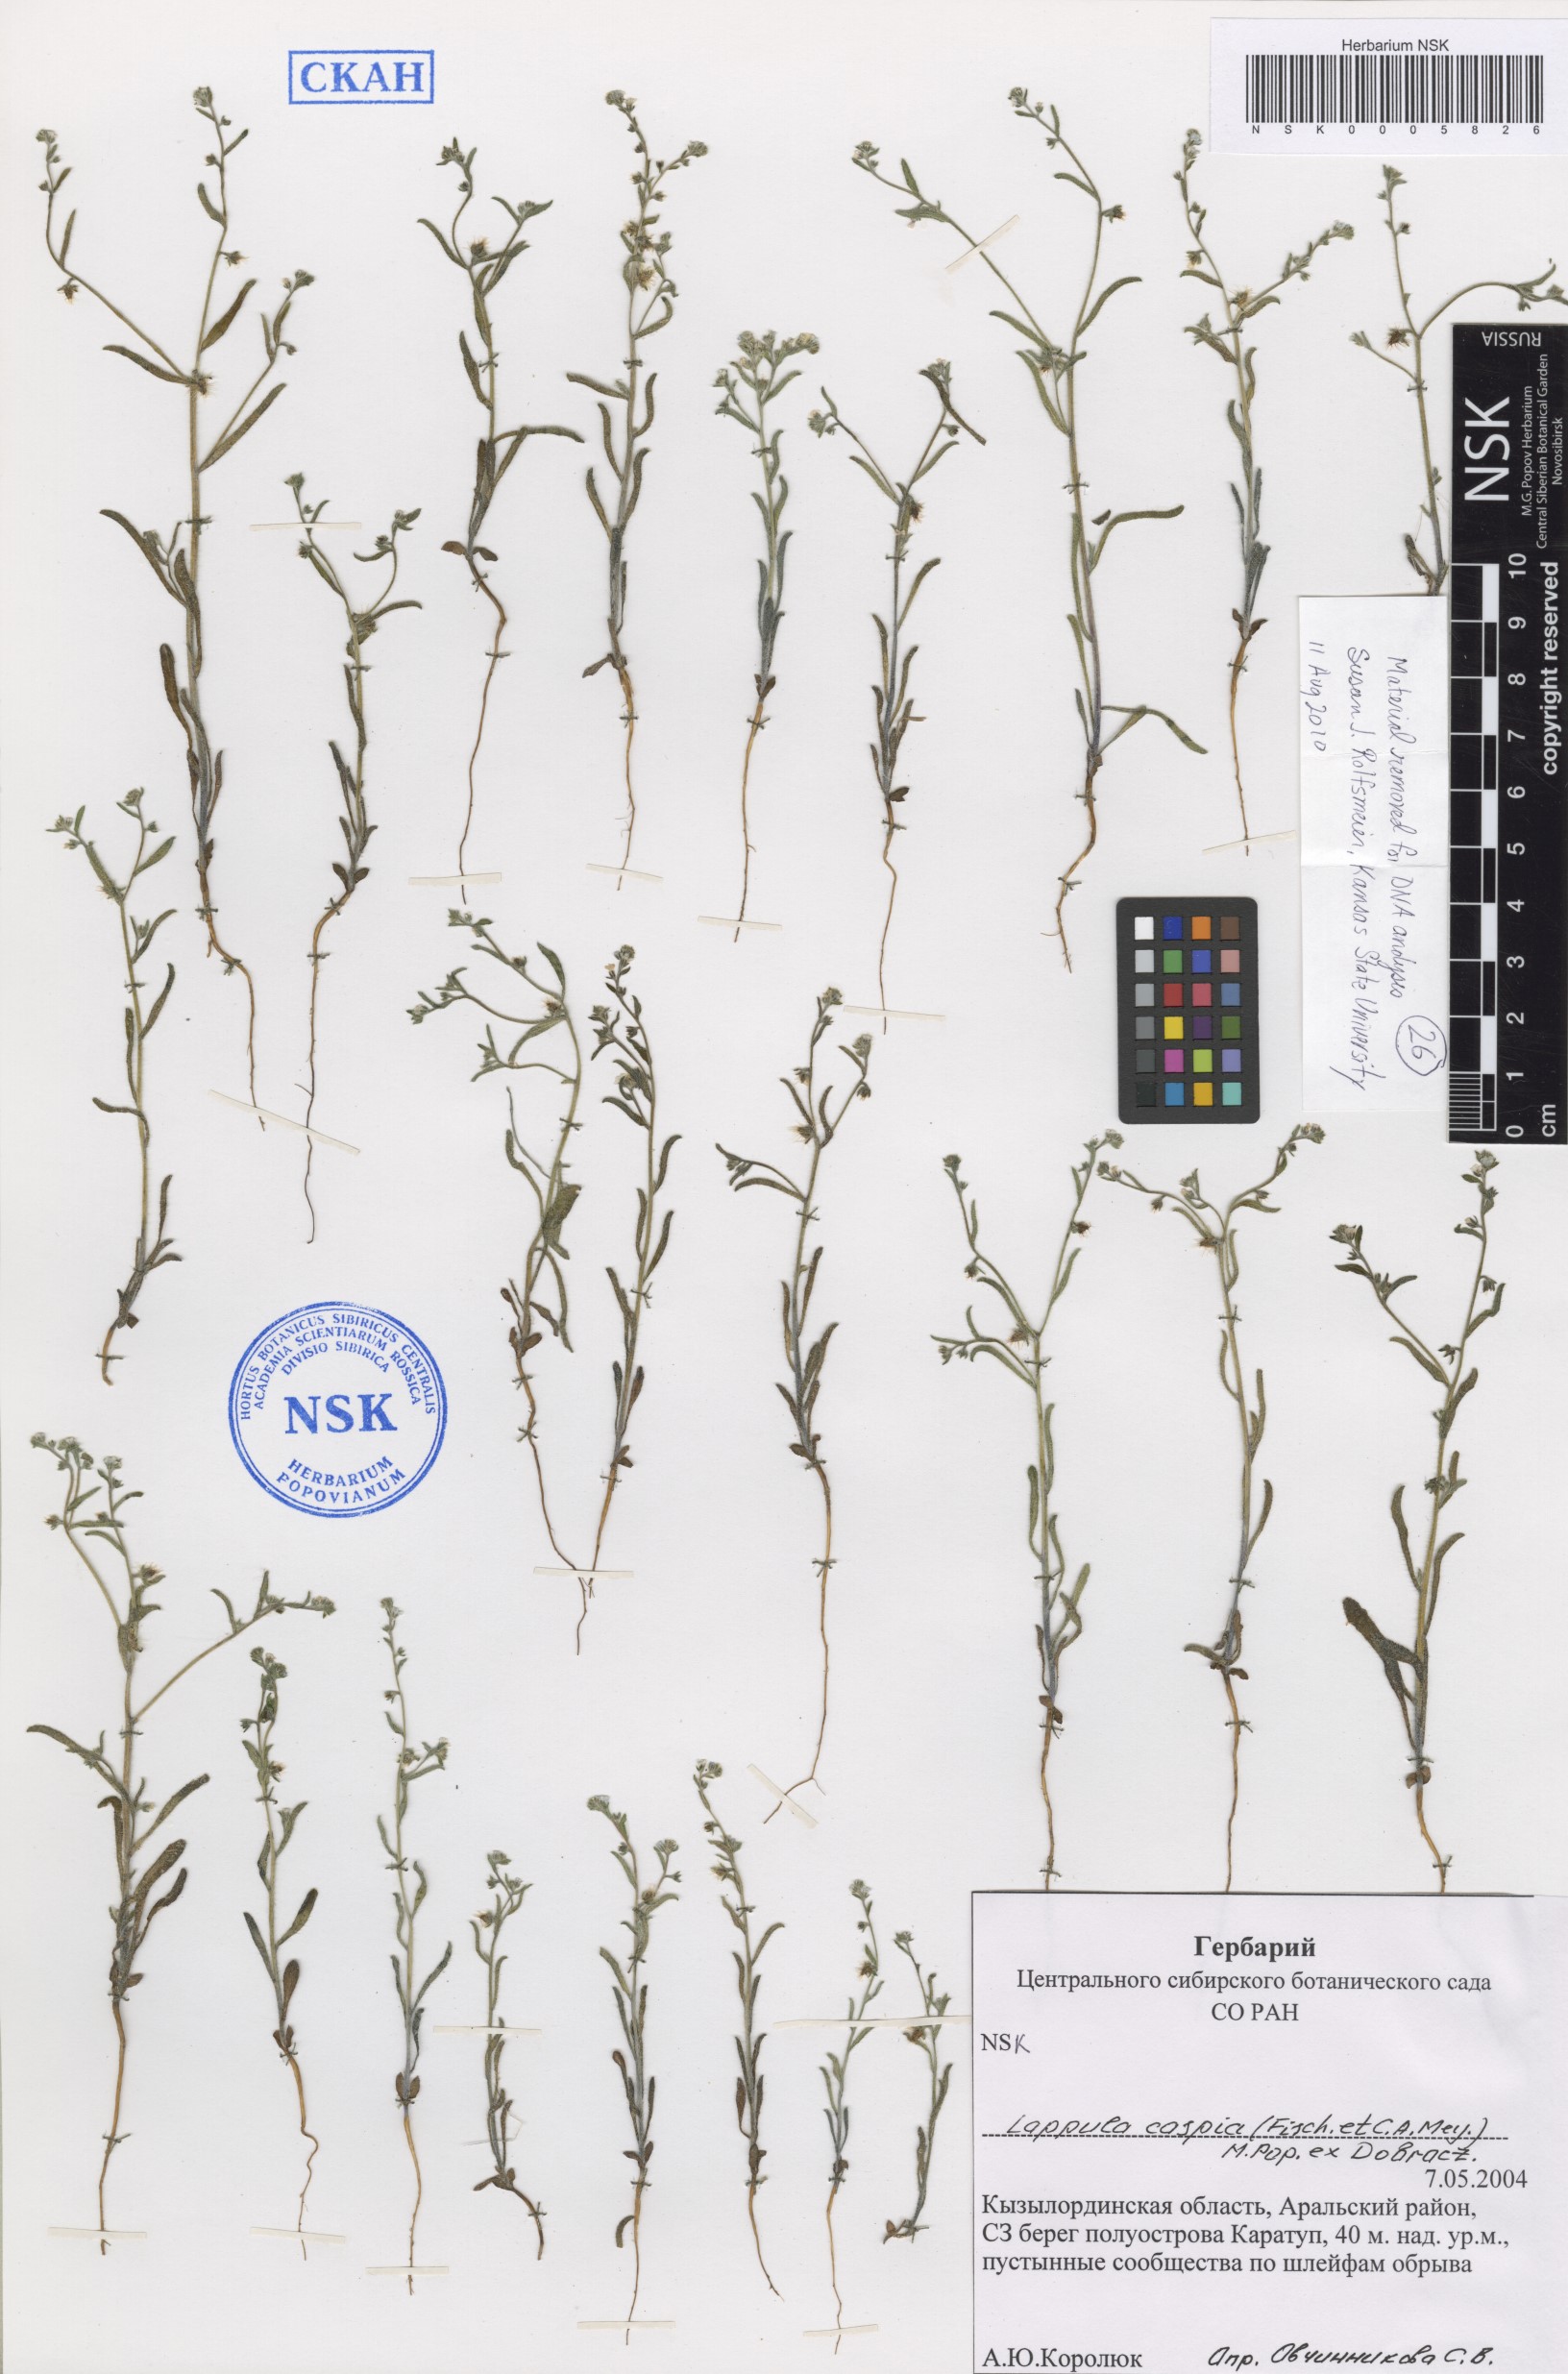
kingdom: Plantae
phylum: Tracheophyta
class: Magnoliopsida
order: Boraginales
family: Boraginaceae
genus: Lappula
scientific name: Lappula caspia
